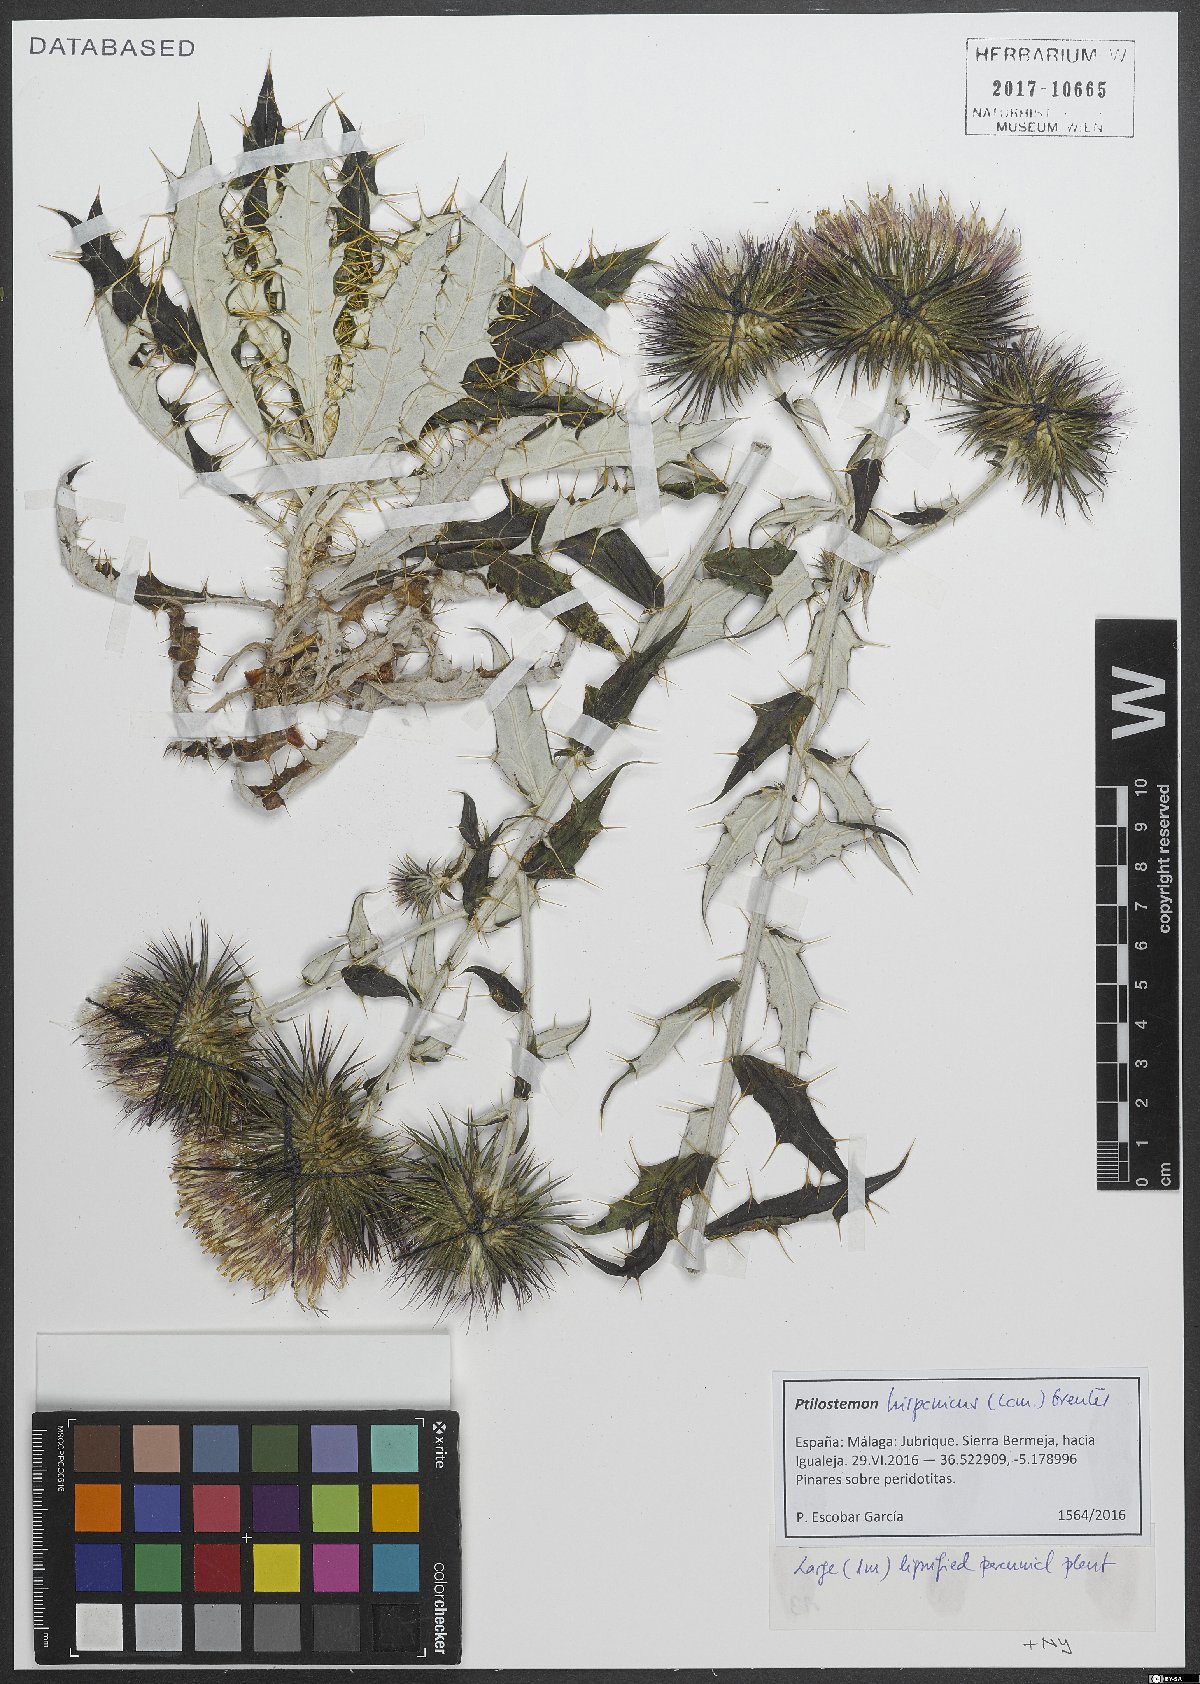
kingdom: Plantae
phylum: Tracheophyta
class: Magnoliopsida
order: Asterales
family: Asteraceae
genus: Ptilostemon
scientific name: Ptilostemon hispanicus
